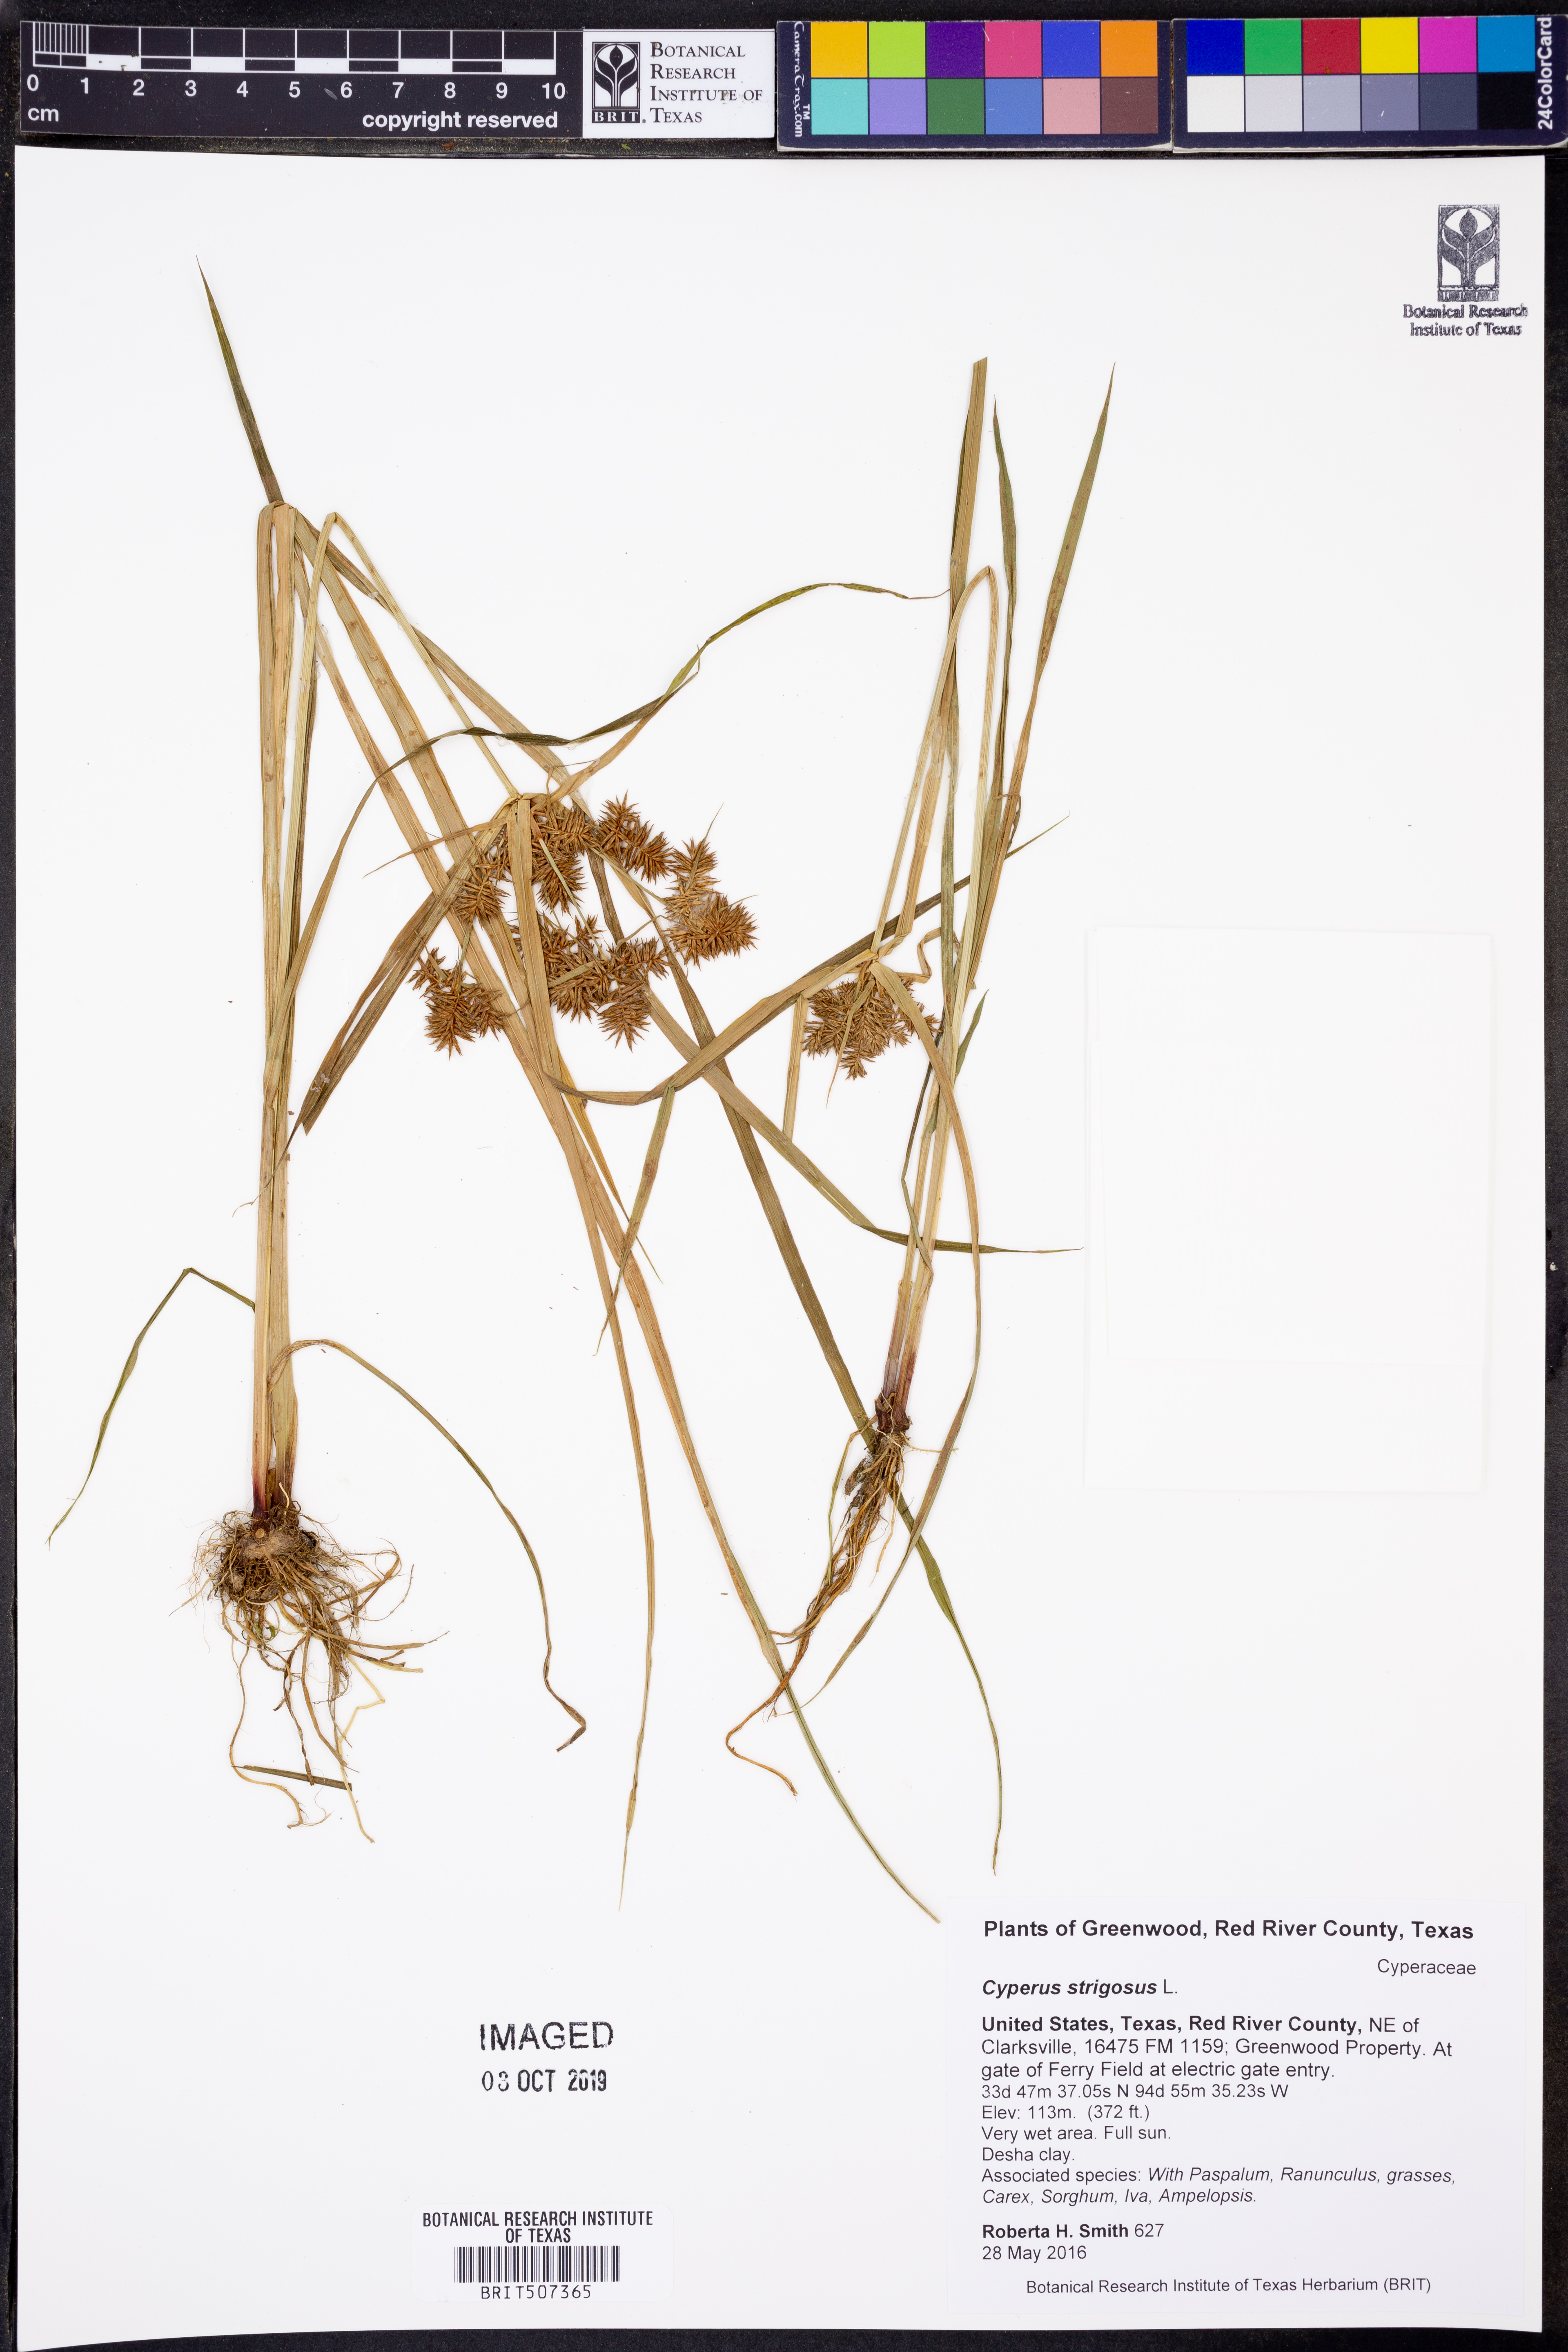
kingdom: Plantae
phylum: Tracheophyta
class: Liliopsida
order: Poales
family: Cyperaceae
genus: Cyperus
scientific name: Cyperus strigosus
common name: False nutsedge
